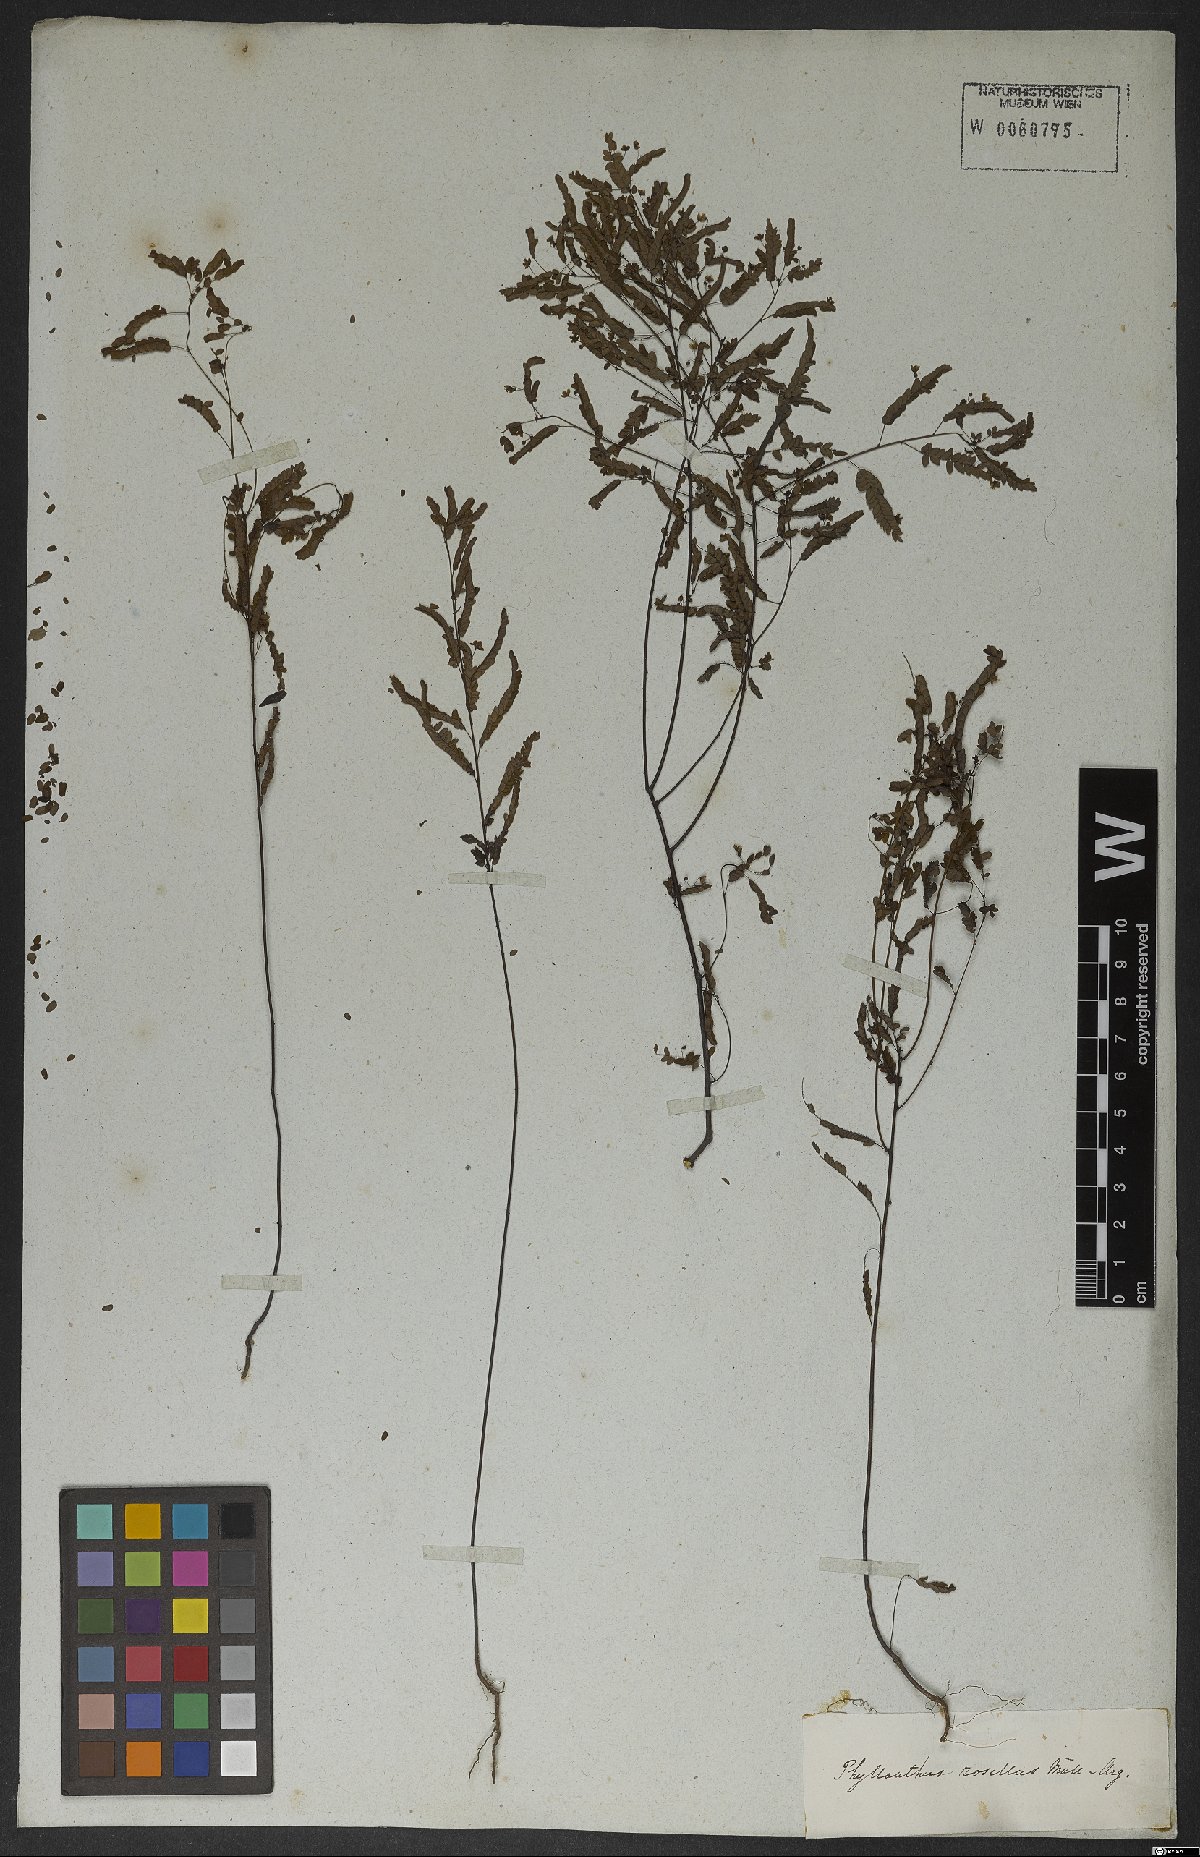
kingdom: Plantae
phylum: Tracheophyta
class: Magnoliopsida
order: Malpighiales
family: Phyllanthaceae
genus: Phyllanthus
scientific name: Phyllanthus niruri
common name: Niruri
